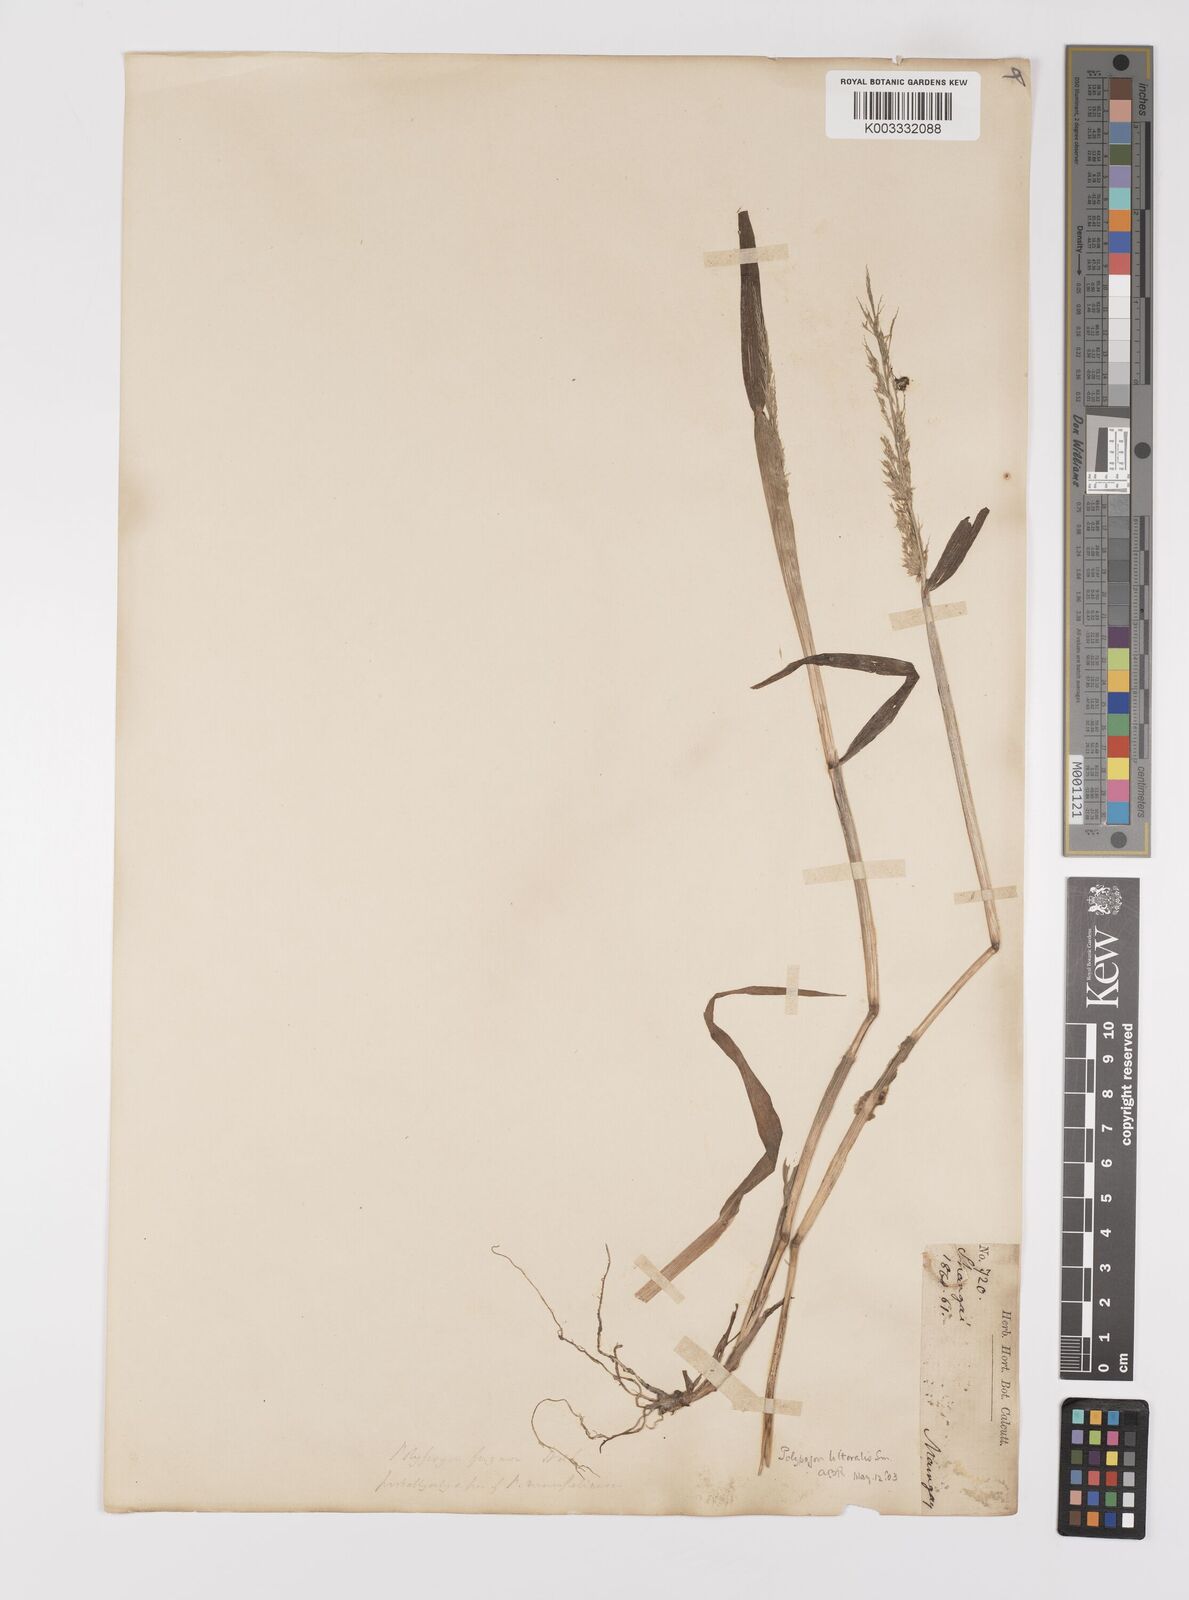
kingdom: Plantae
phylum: Tracheophyta
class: Liliopsida
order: Poales
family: Poaceae
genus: Polypogon
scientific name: Polypogon fugax
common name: Asia minor bluegrass
